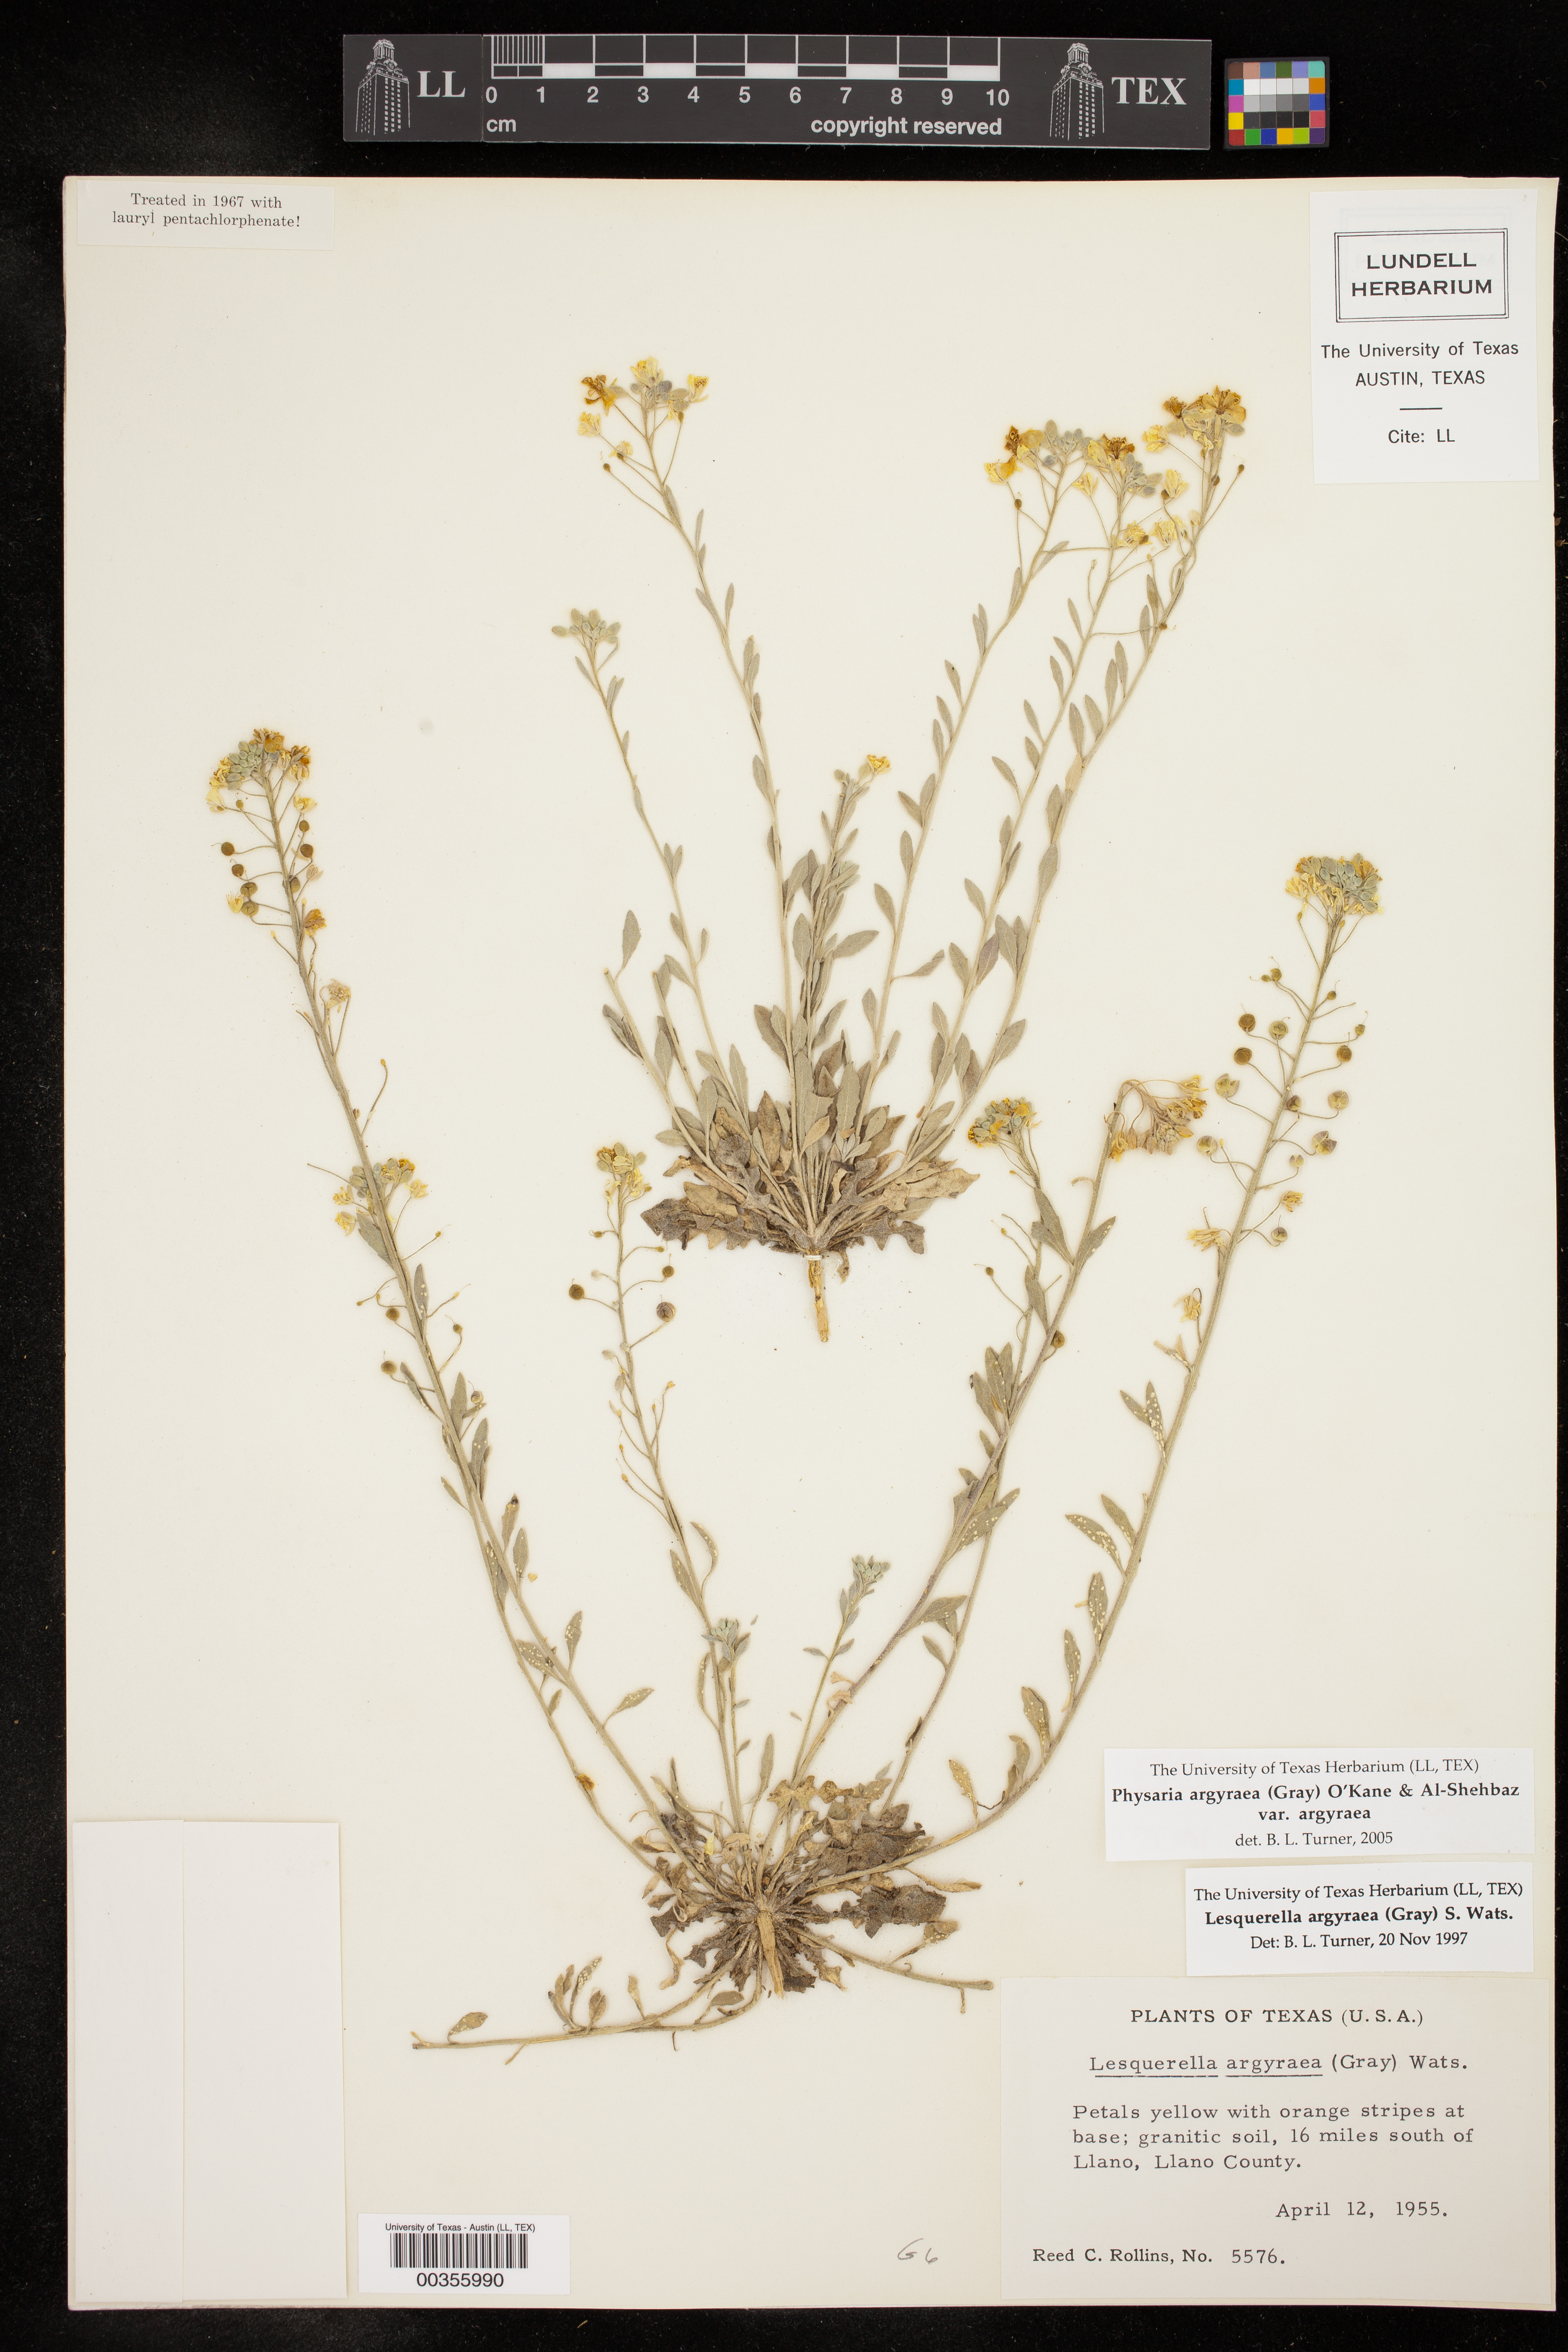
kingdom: Plantae
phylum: Tracheophyta
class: Magnoliopsida
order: Brassicales
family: Brassicaceae
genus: Physaria
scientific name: Physaria argyraea
